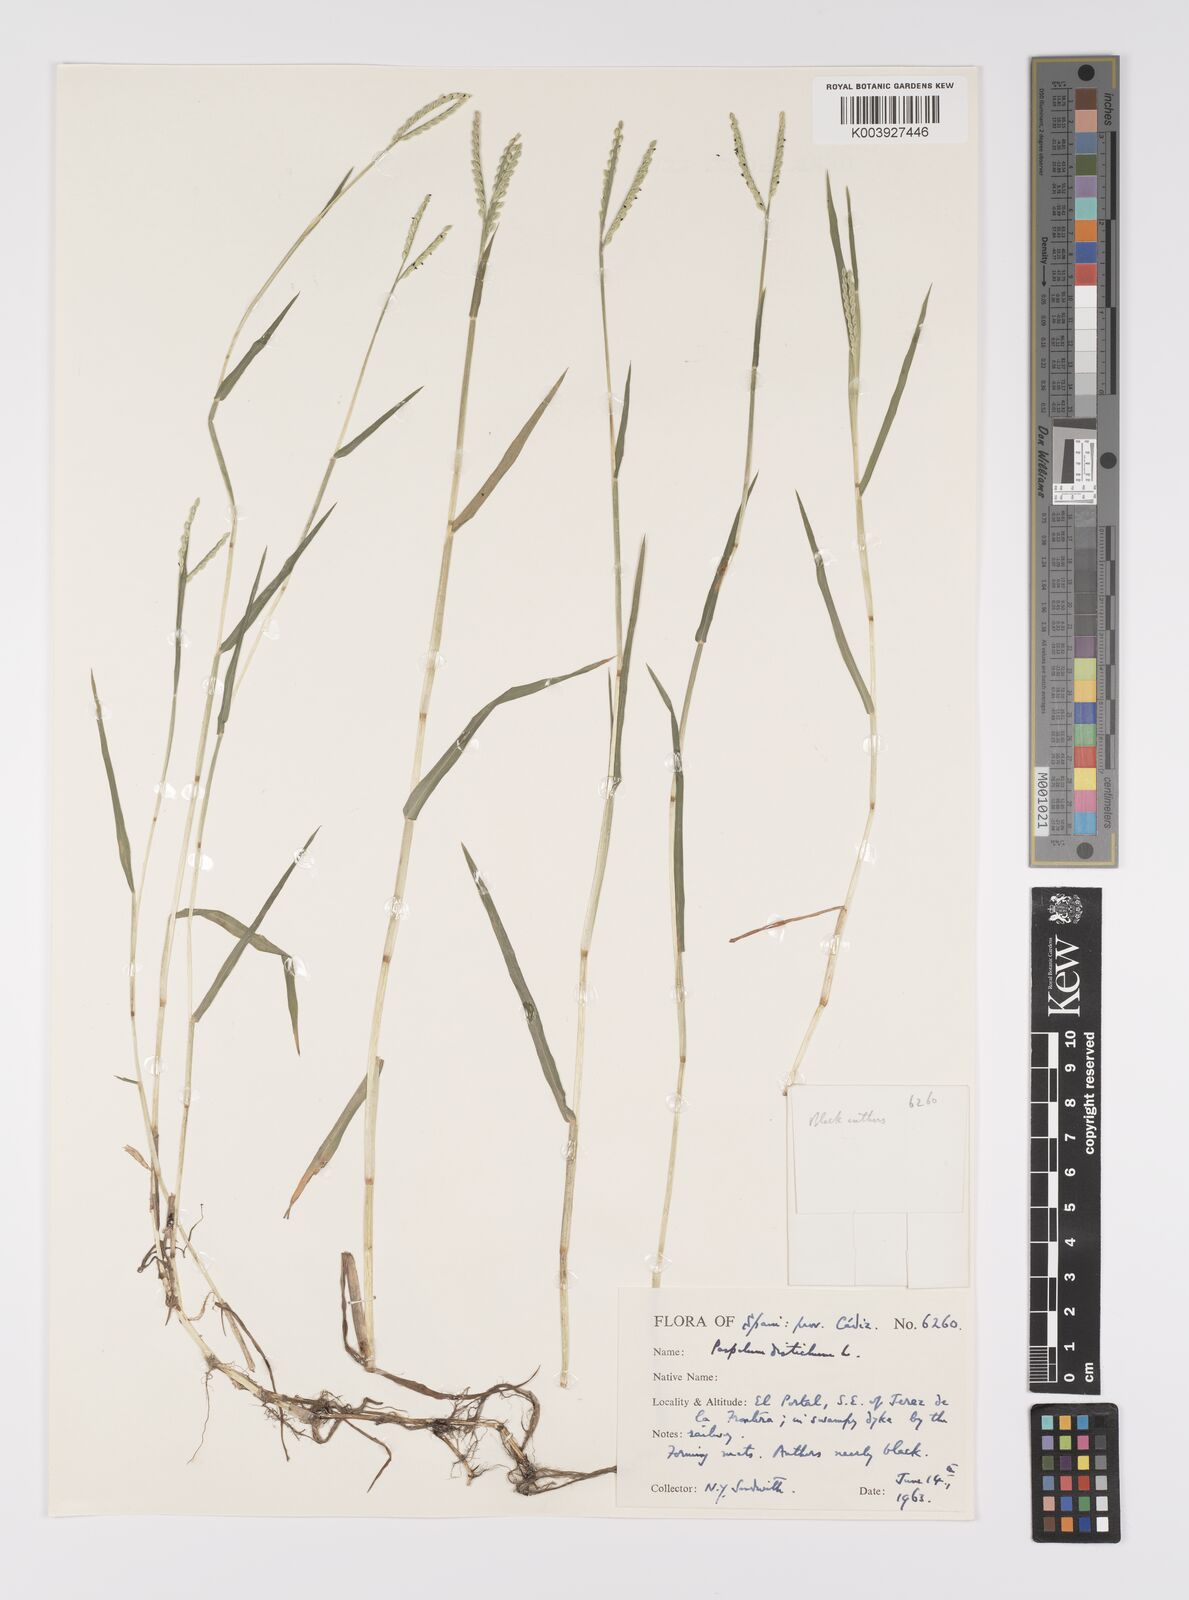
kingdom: Plantae
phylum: Tracheophyta
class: Liliopsida
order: Poales
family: Poaceae
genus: Paspalum
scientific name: Paspalum distichum
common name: Knotgrass
